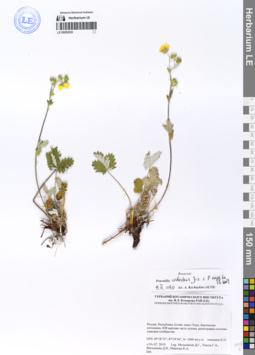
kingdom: Plantae
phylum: Tracheophyta
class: Magnoliopsida
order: Rosales
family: Rosaceae
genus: Potentilla
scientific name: Potentilla crebridens
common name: Congested cinquefoil
